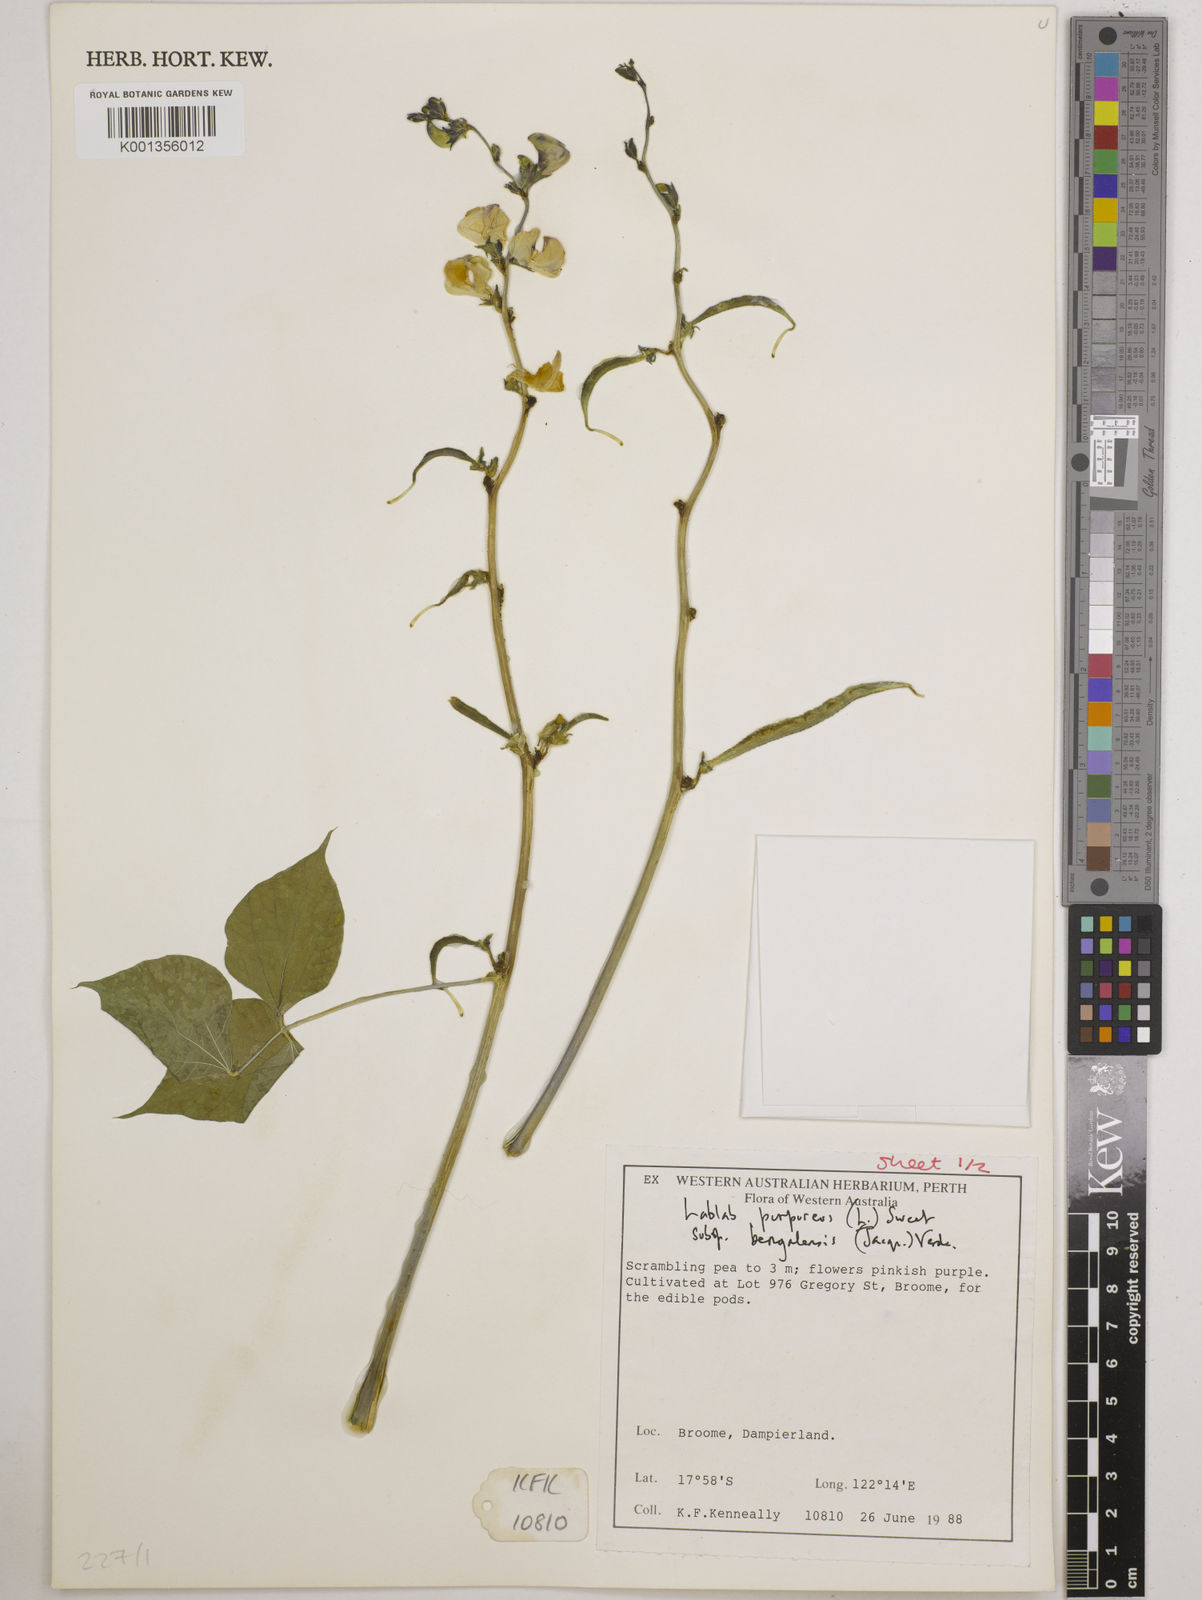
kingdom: Plantae
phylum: Tracheophyta
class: Magnoliopsida
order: Fabales
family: Fabaceae
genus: Lablab
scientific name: Lablab purpureus
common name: Lablab-bean
